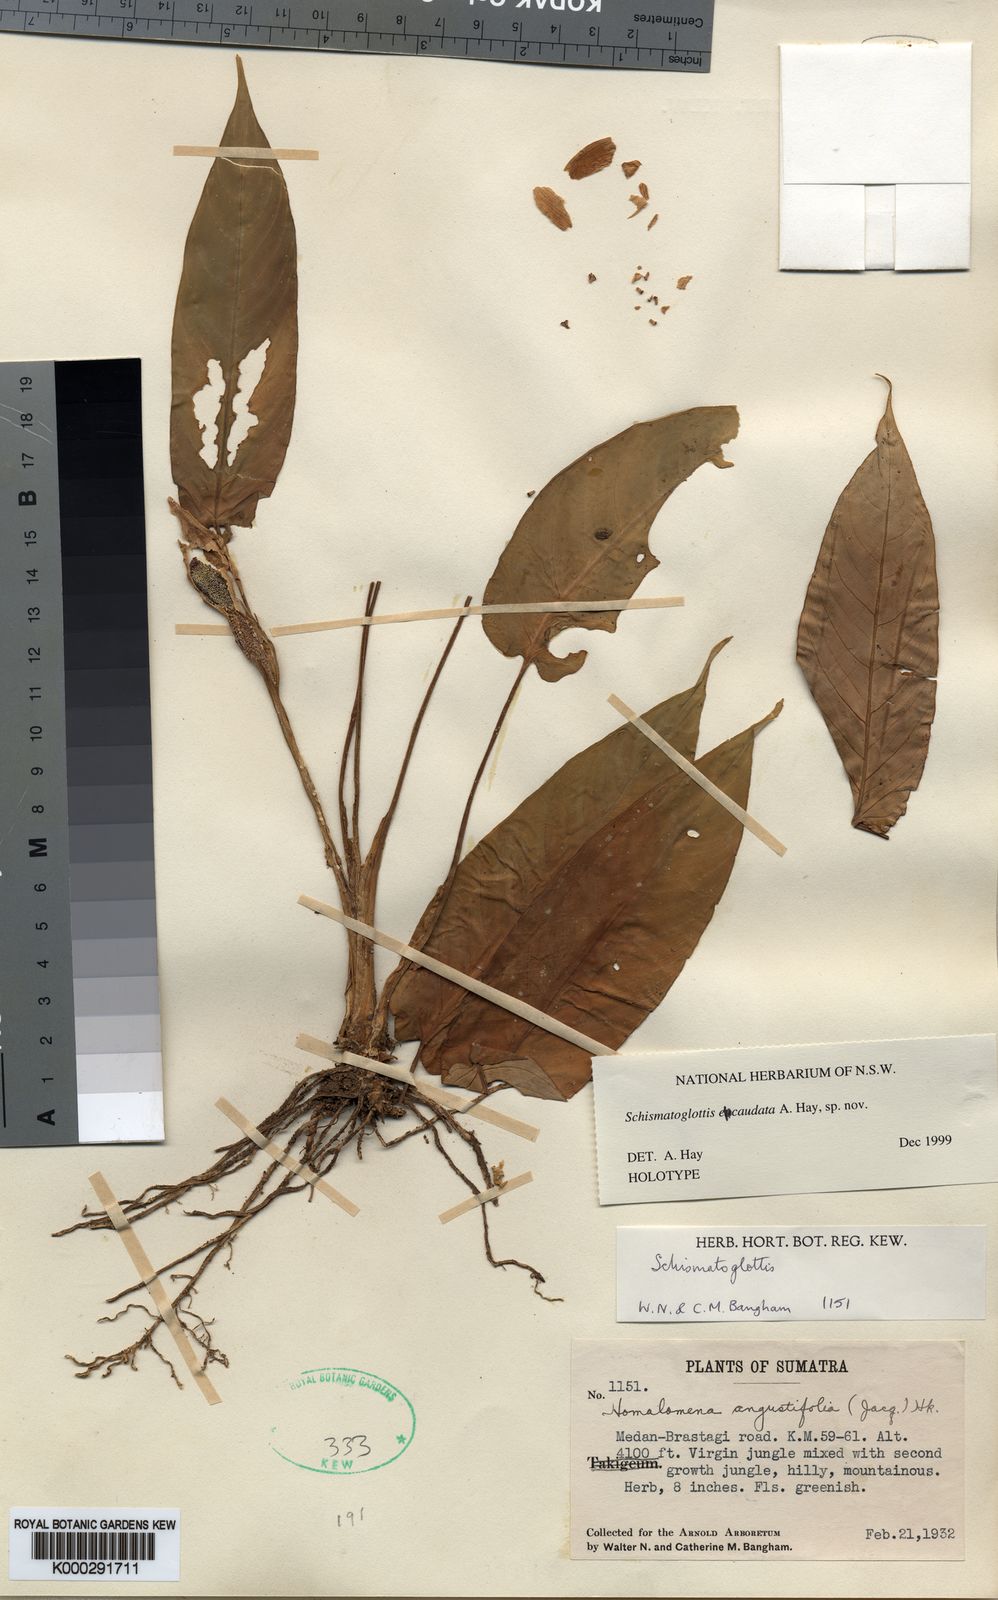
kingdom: Plantae
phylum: Tracheophyta
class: Liliopsida
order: Alismatales
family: Araceae
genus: Schismatoglottis
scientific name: Schismatoglottis ecaudata
